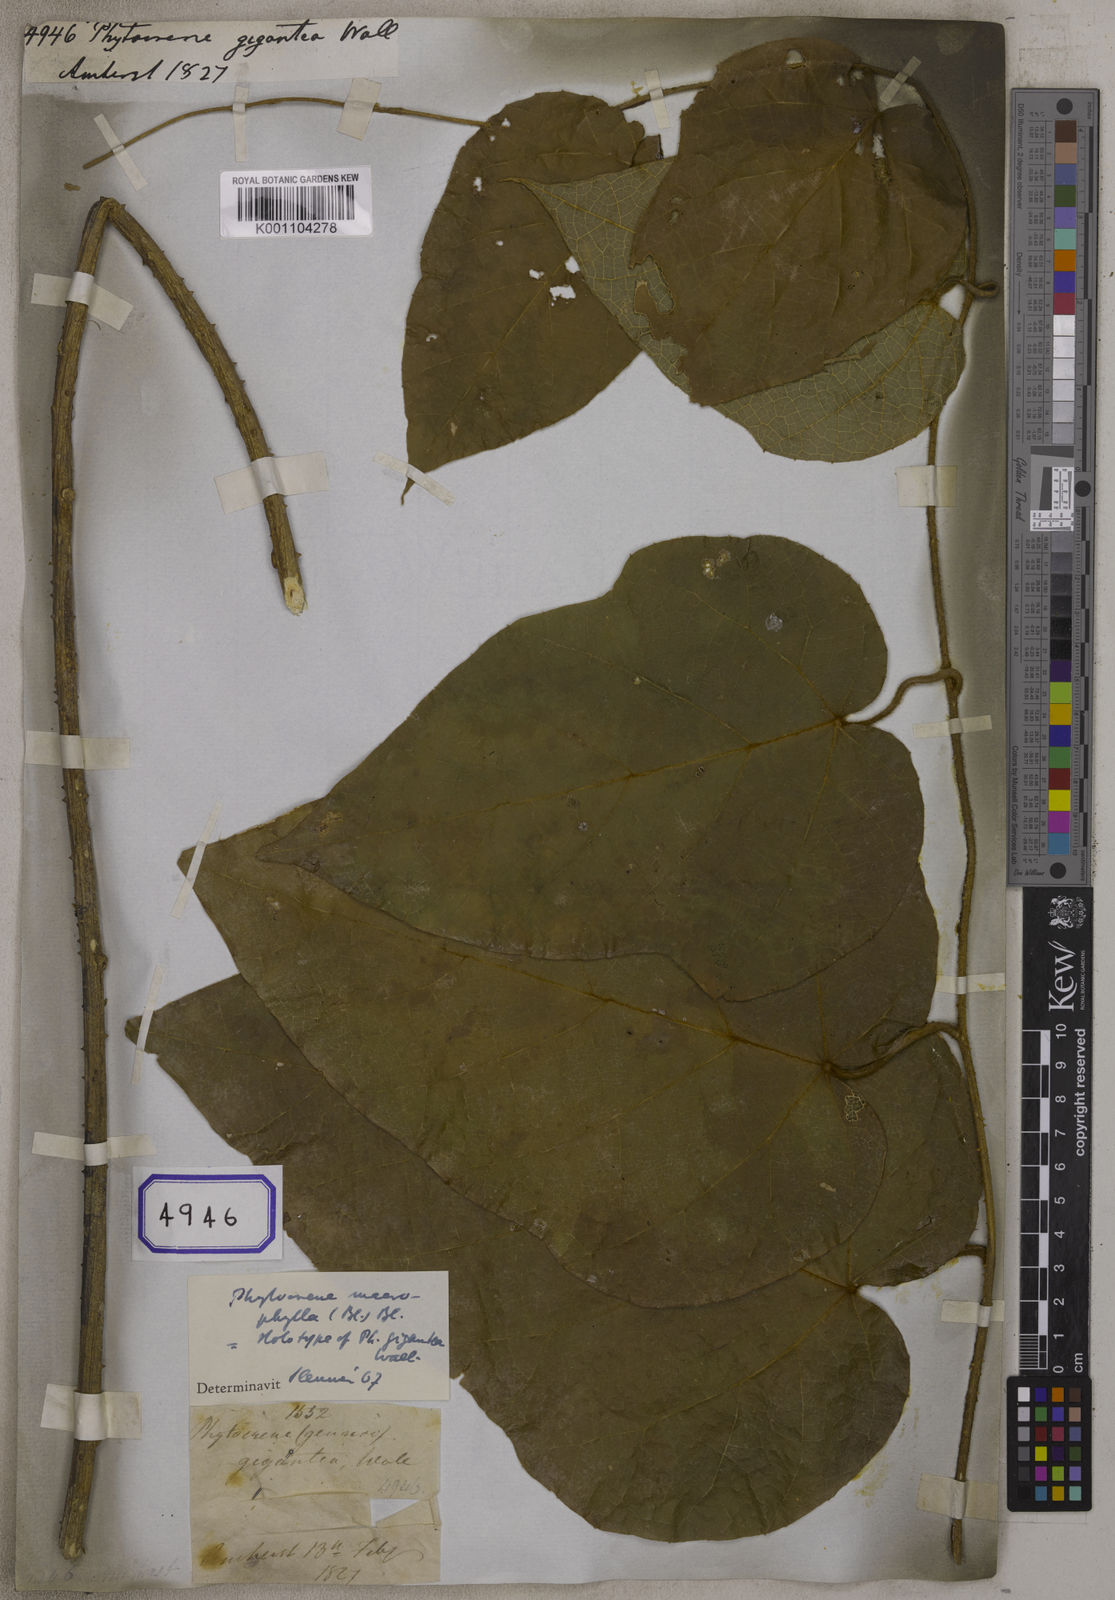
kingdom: Plantae
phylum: Tracheophyta
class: Magnoliopsida
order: Icacinales
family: Icacinaceae
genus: Phytocrene
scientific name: Phytocrene macrophylla
